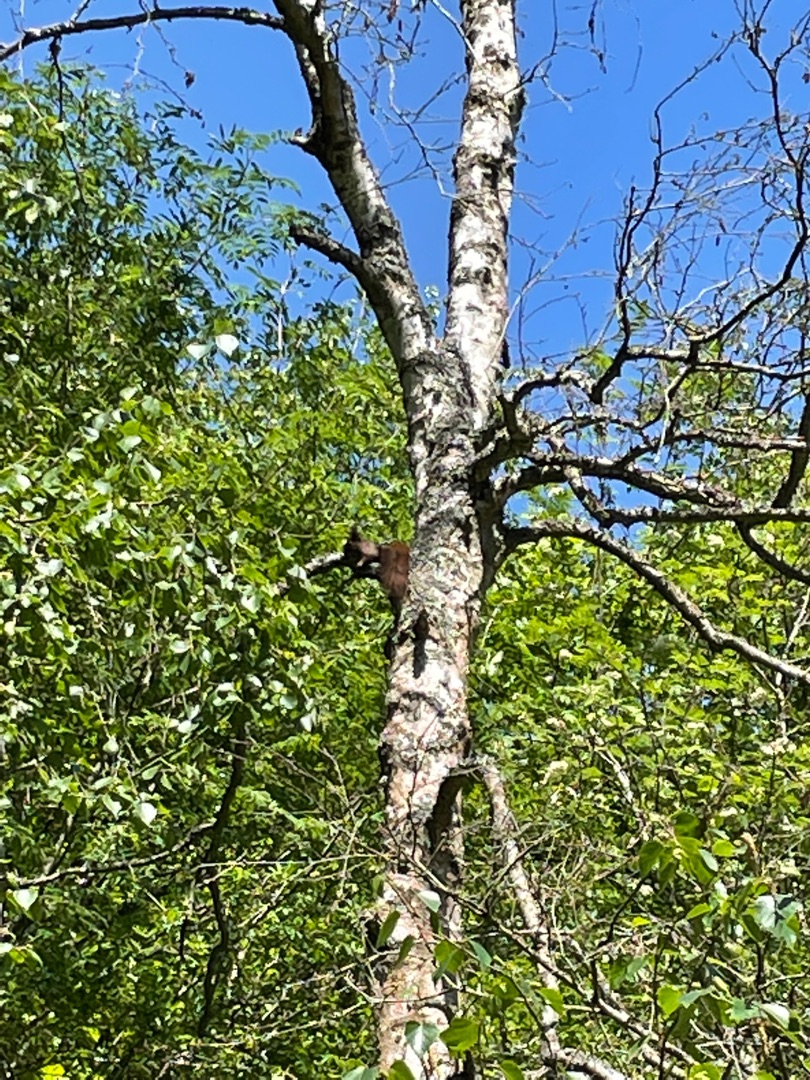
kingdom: Animalia
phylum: Chordata
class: Mammalia
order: Rodentia
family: Sciuridae
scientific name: Sciuridae
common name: Egern
